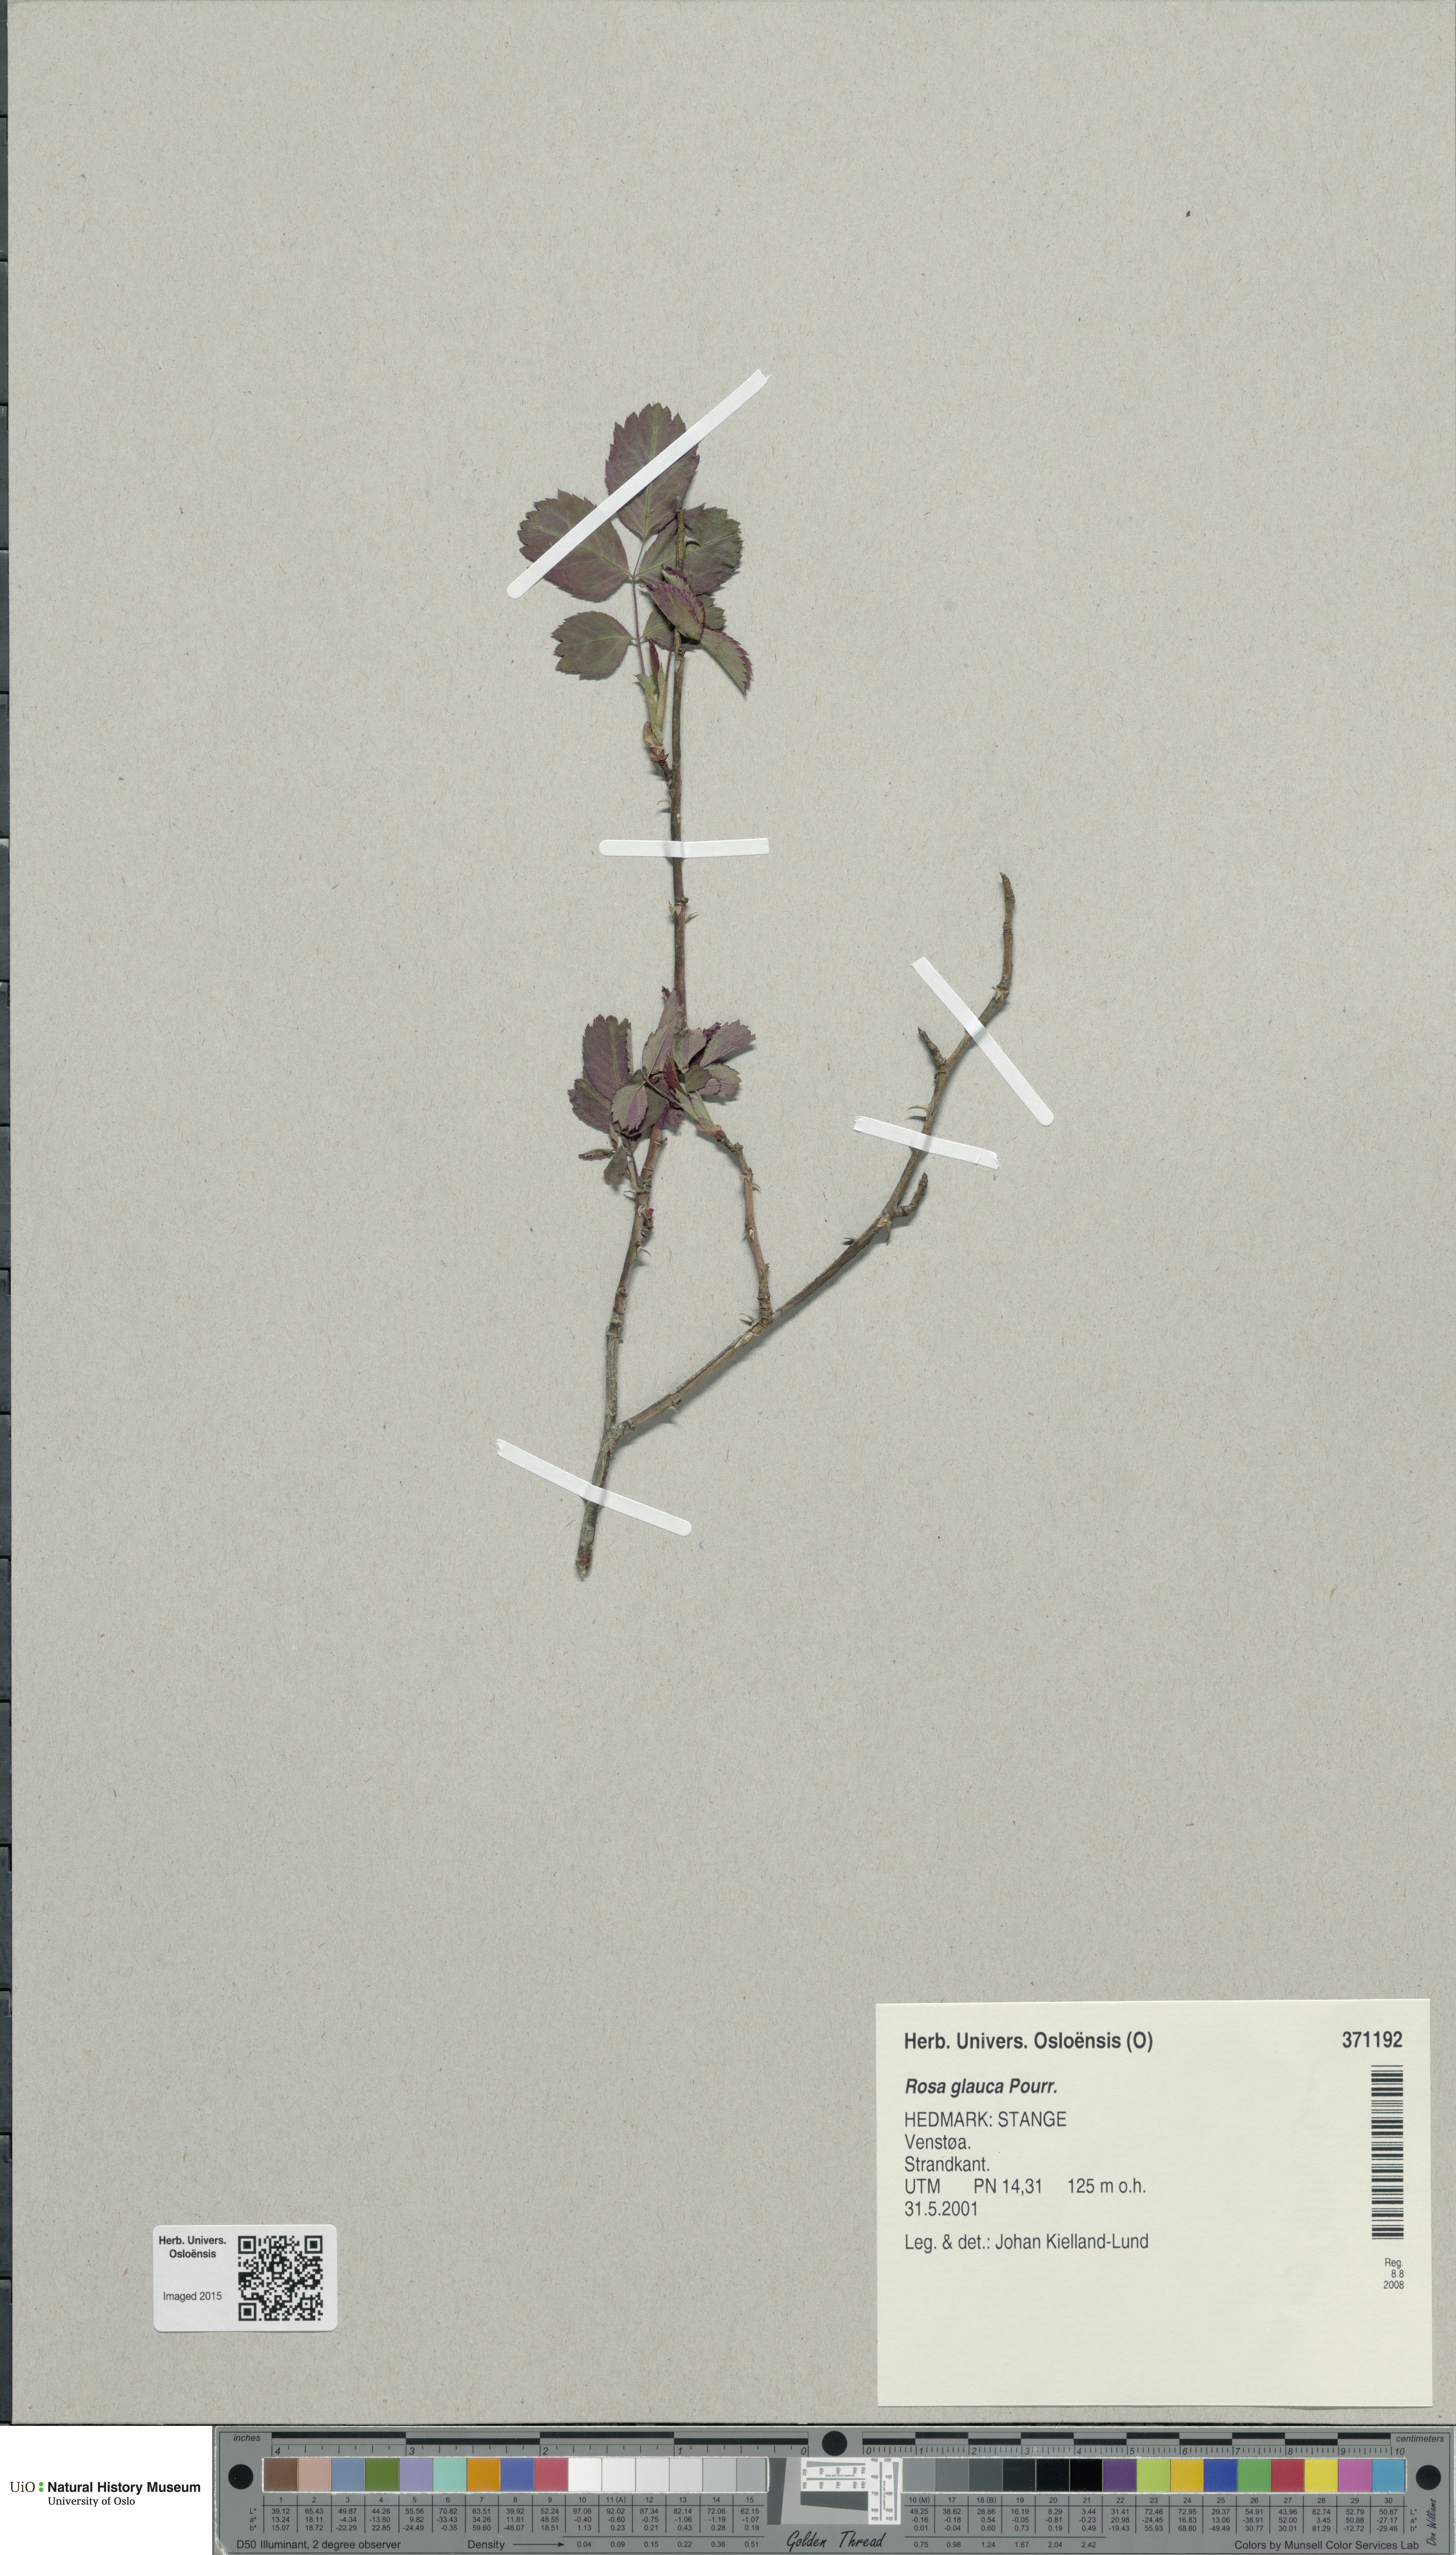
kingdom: Plantae
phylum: Tracheophyta
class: Magnoliopsida
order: Rosales
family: Rosaceae
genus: Rosa
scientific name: Rosa glauca
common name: Redleaf rose
